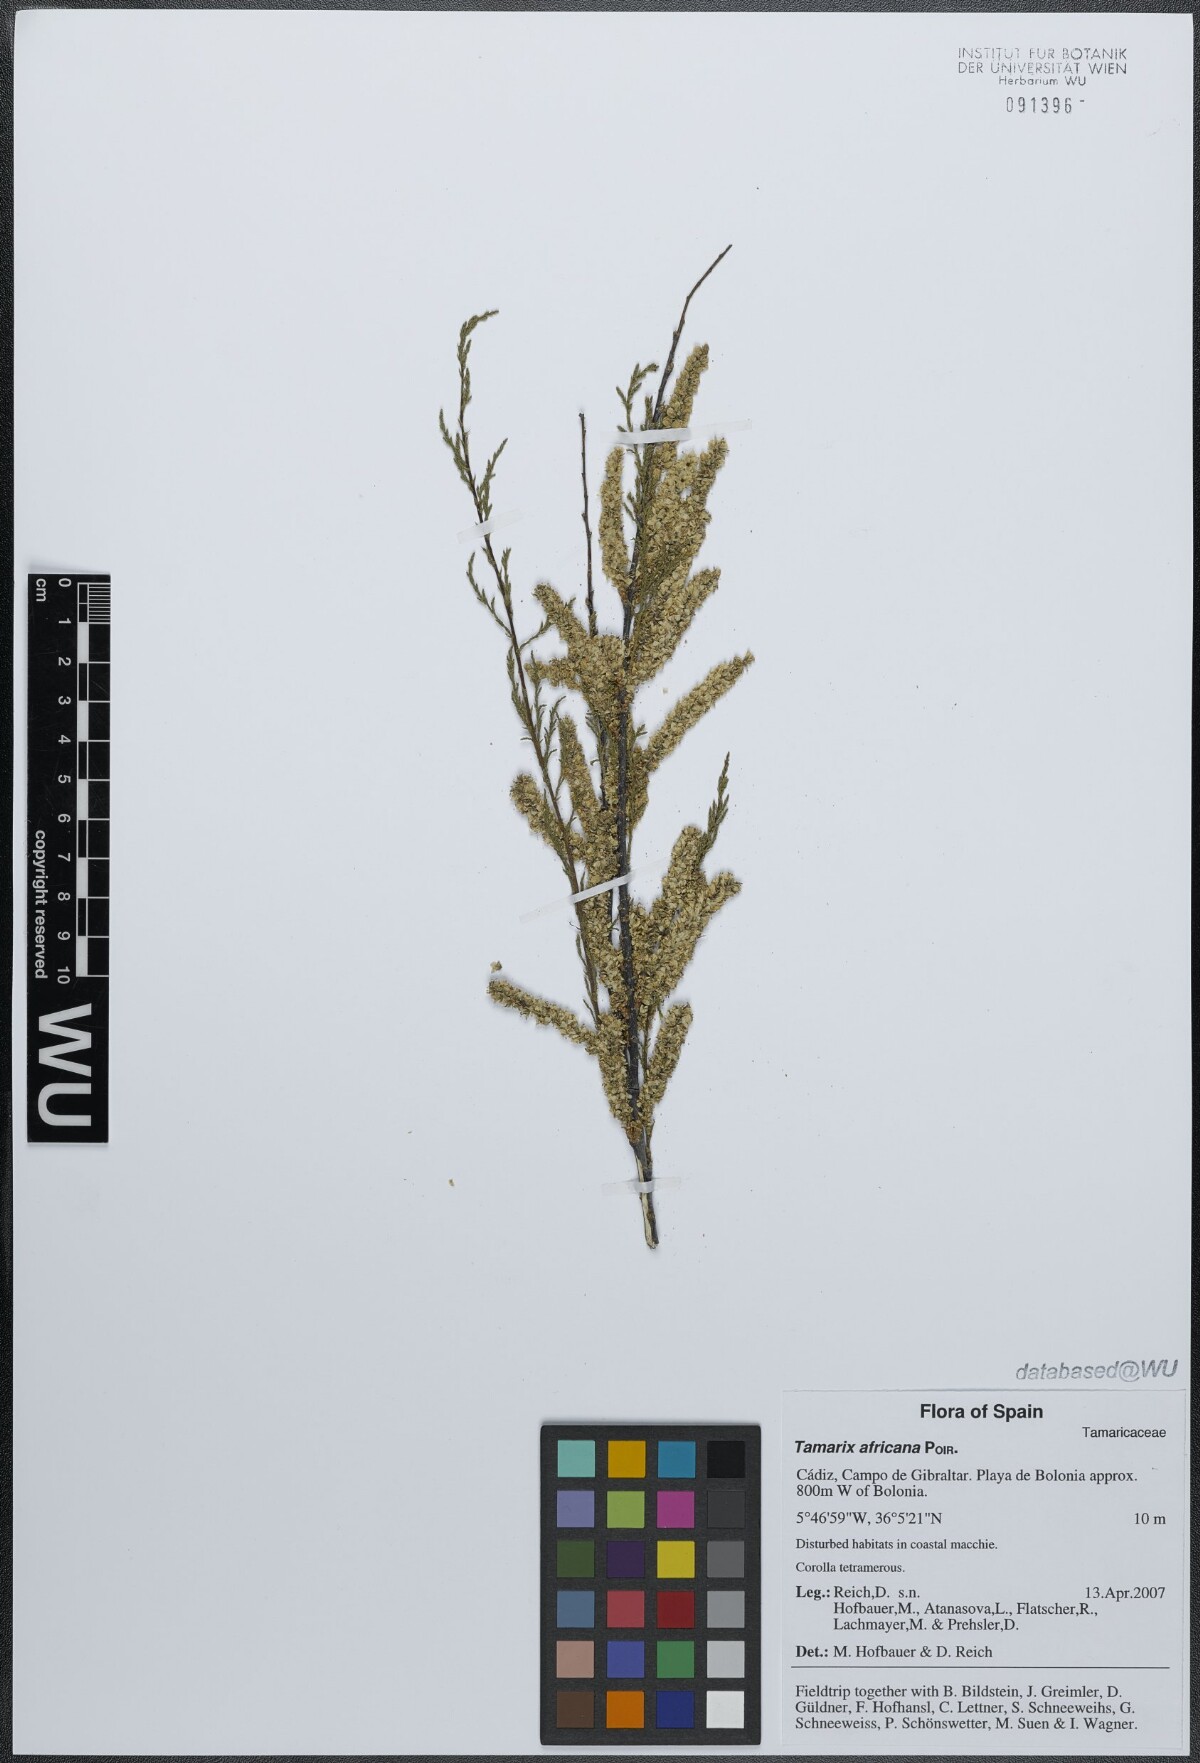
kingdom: Plantae
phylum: Tracheophyta
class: Magnoliopsida
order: Caryophyllales
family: Tamaricaceae
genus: Tamarix
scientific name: Tamarix africana
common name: African tamarisk
